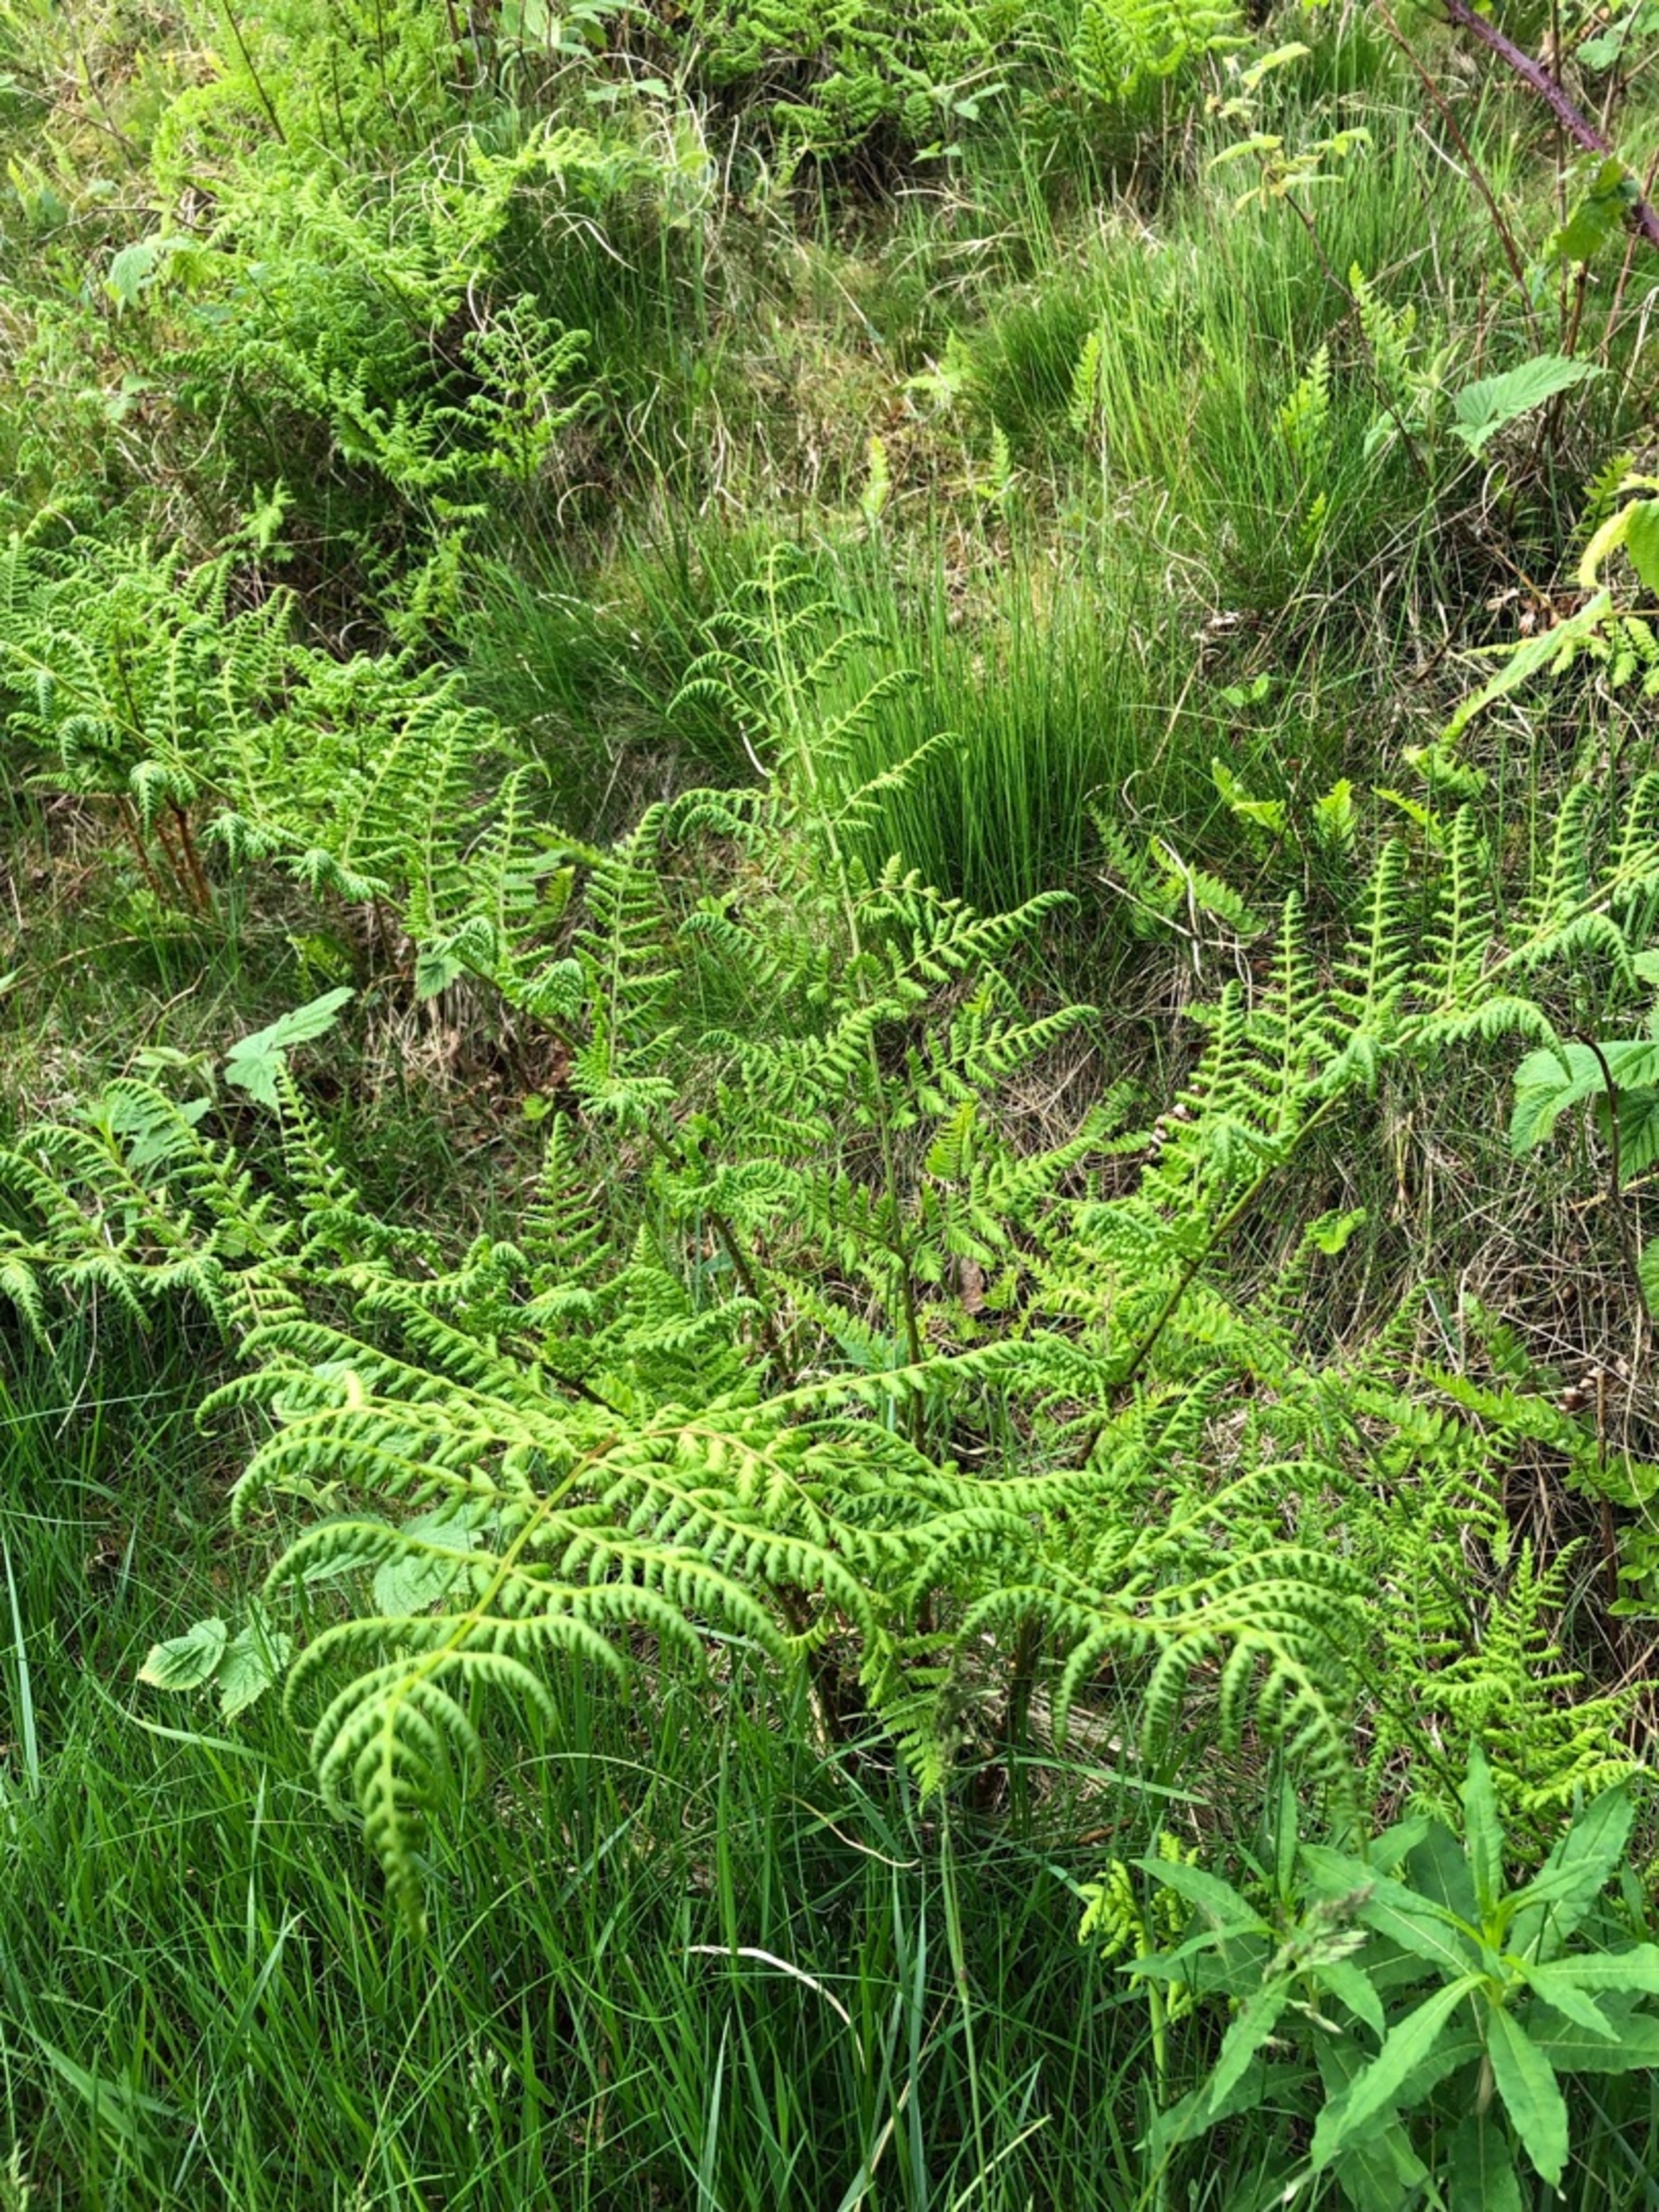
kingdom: Plantae
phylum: Tracheophyta
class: Polypodiopsida
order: Polypodiales
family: Dryopteridaceae
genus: Dryopteris
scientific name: Dryopteris dilatata
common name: Bredbladet mangeløv
